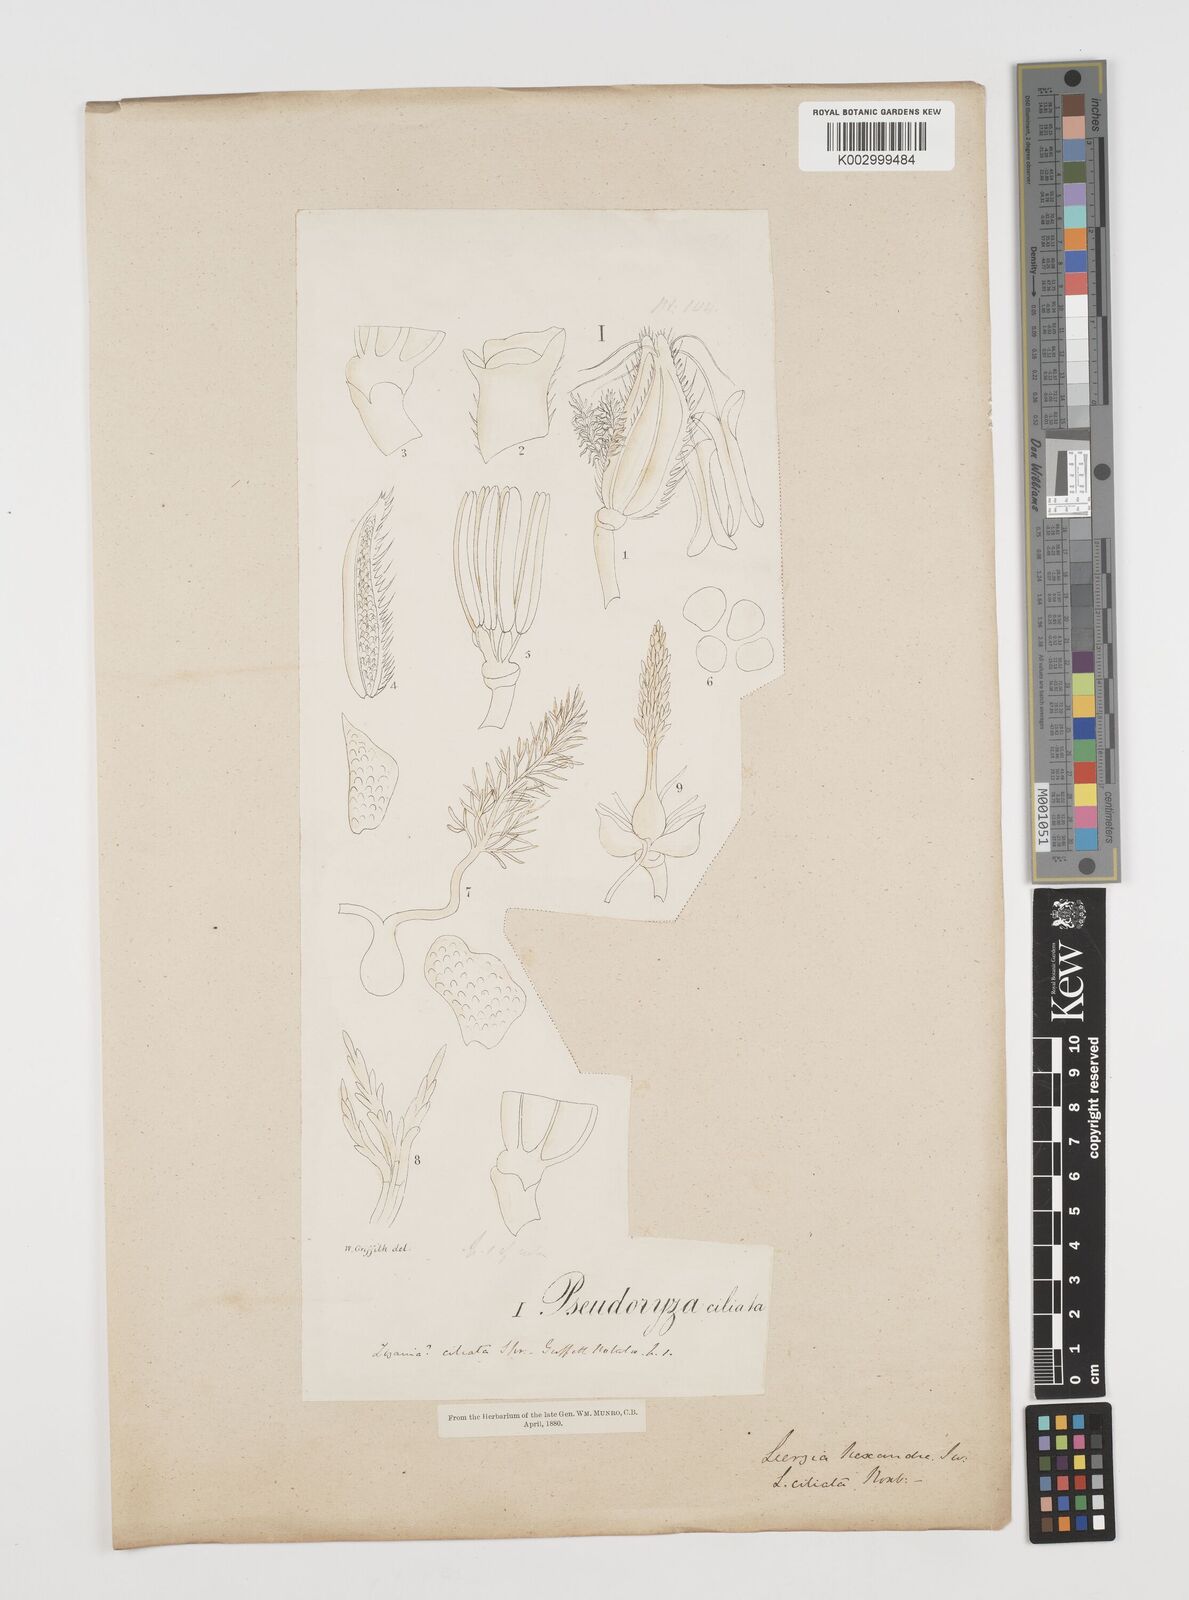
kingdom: Plantae
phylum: Tracheophyta
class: Liliopsida
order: Poales
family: Poaceae
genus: Leersia
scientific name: Leersia hexandra
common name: Southern cut grass
